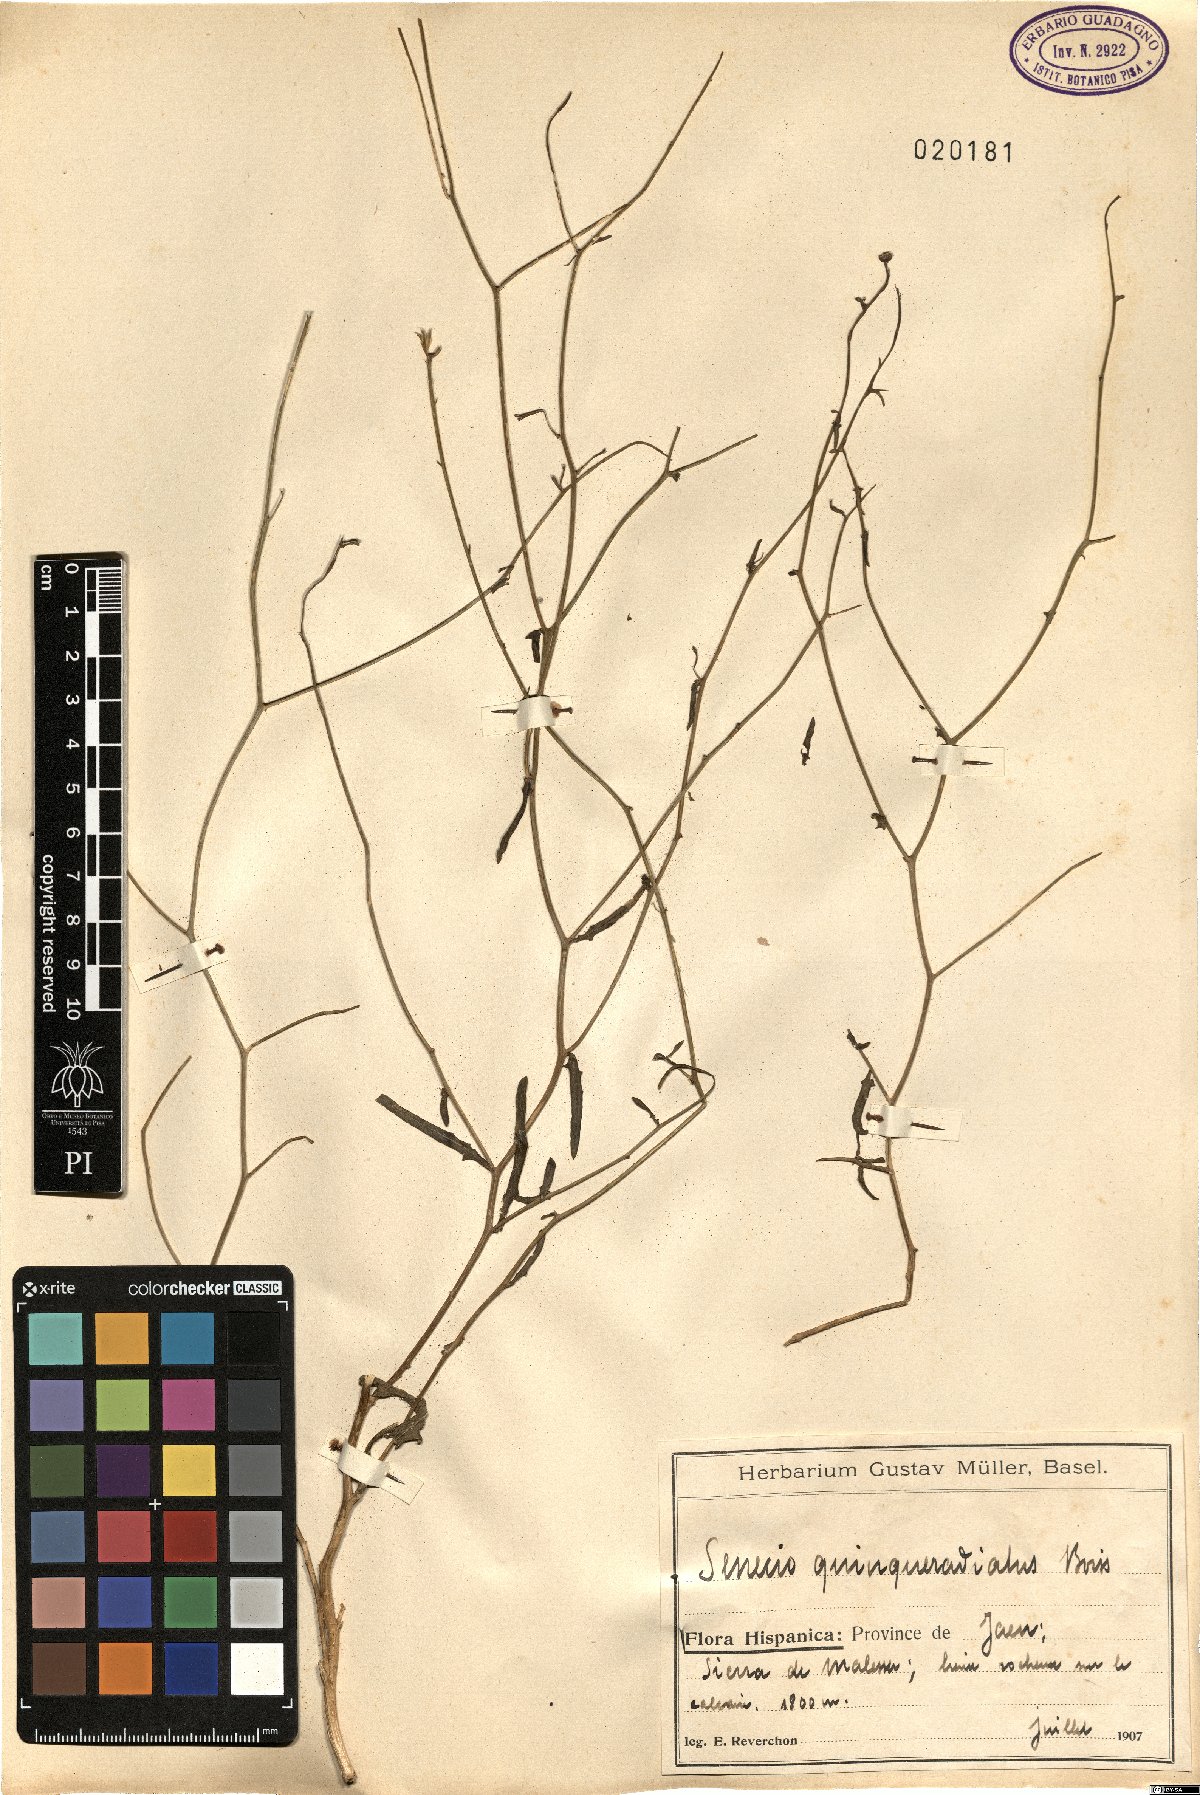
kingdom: Plantae
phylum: Tracheophyta
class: Magnoliopsida
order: Asterales
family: Asteraceae
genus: Senecio
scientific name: Senecio quinqueradiatus
